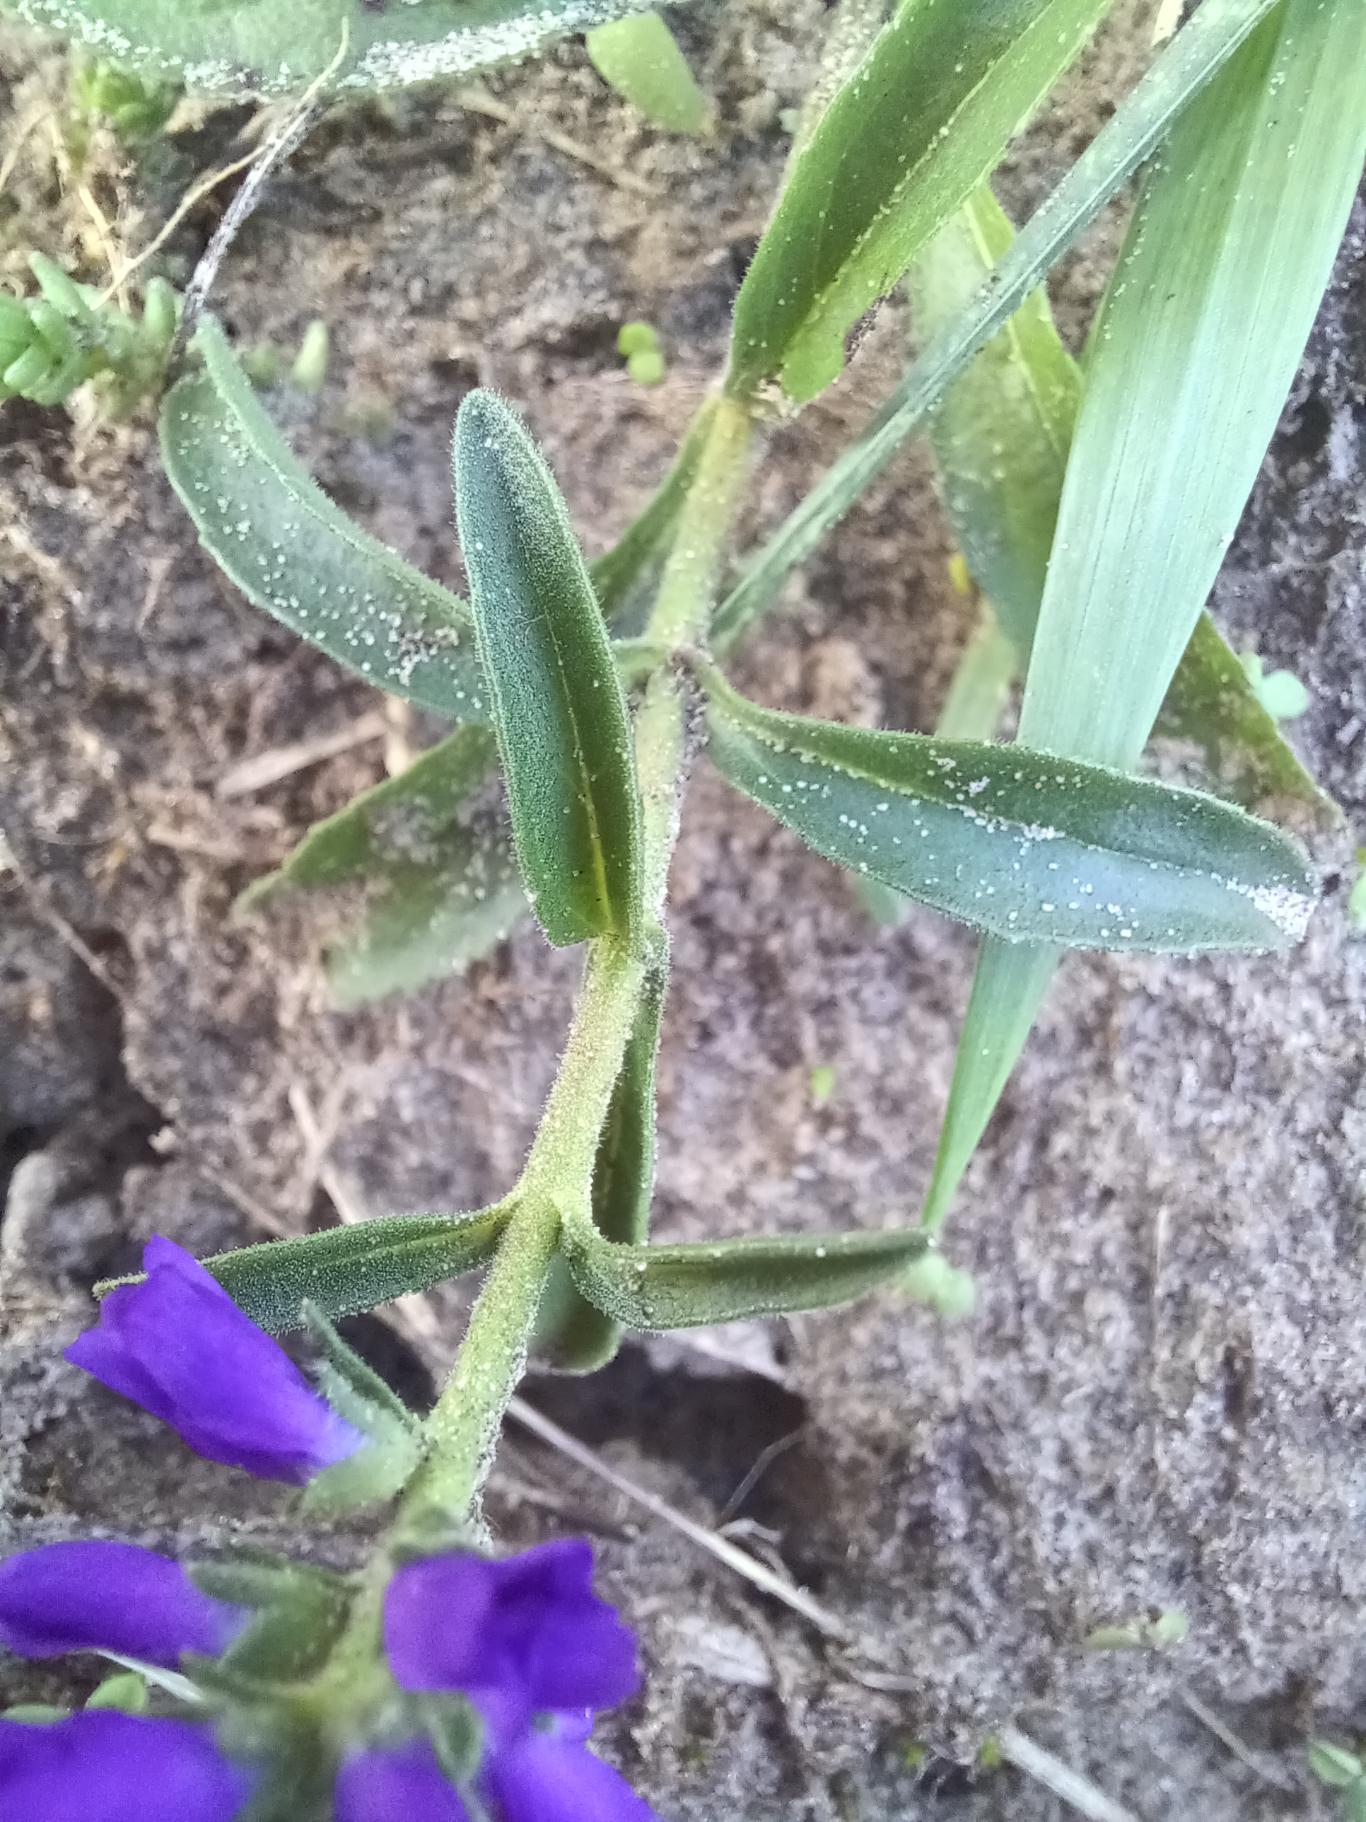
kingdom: Plantae
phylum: Tracheophyta
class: Magnoliopsida
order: Lamiales
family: Plantaginaceae
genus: Veronica
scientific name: Veronica spicata
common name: Aks-ærenpris
